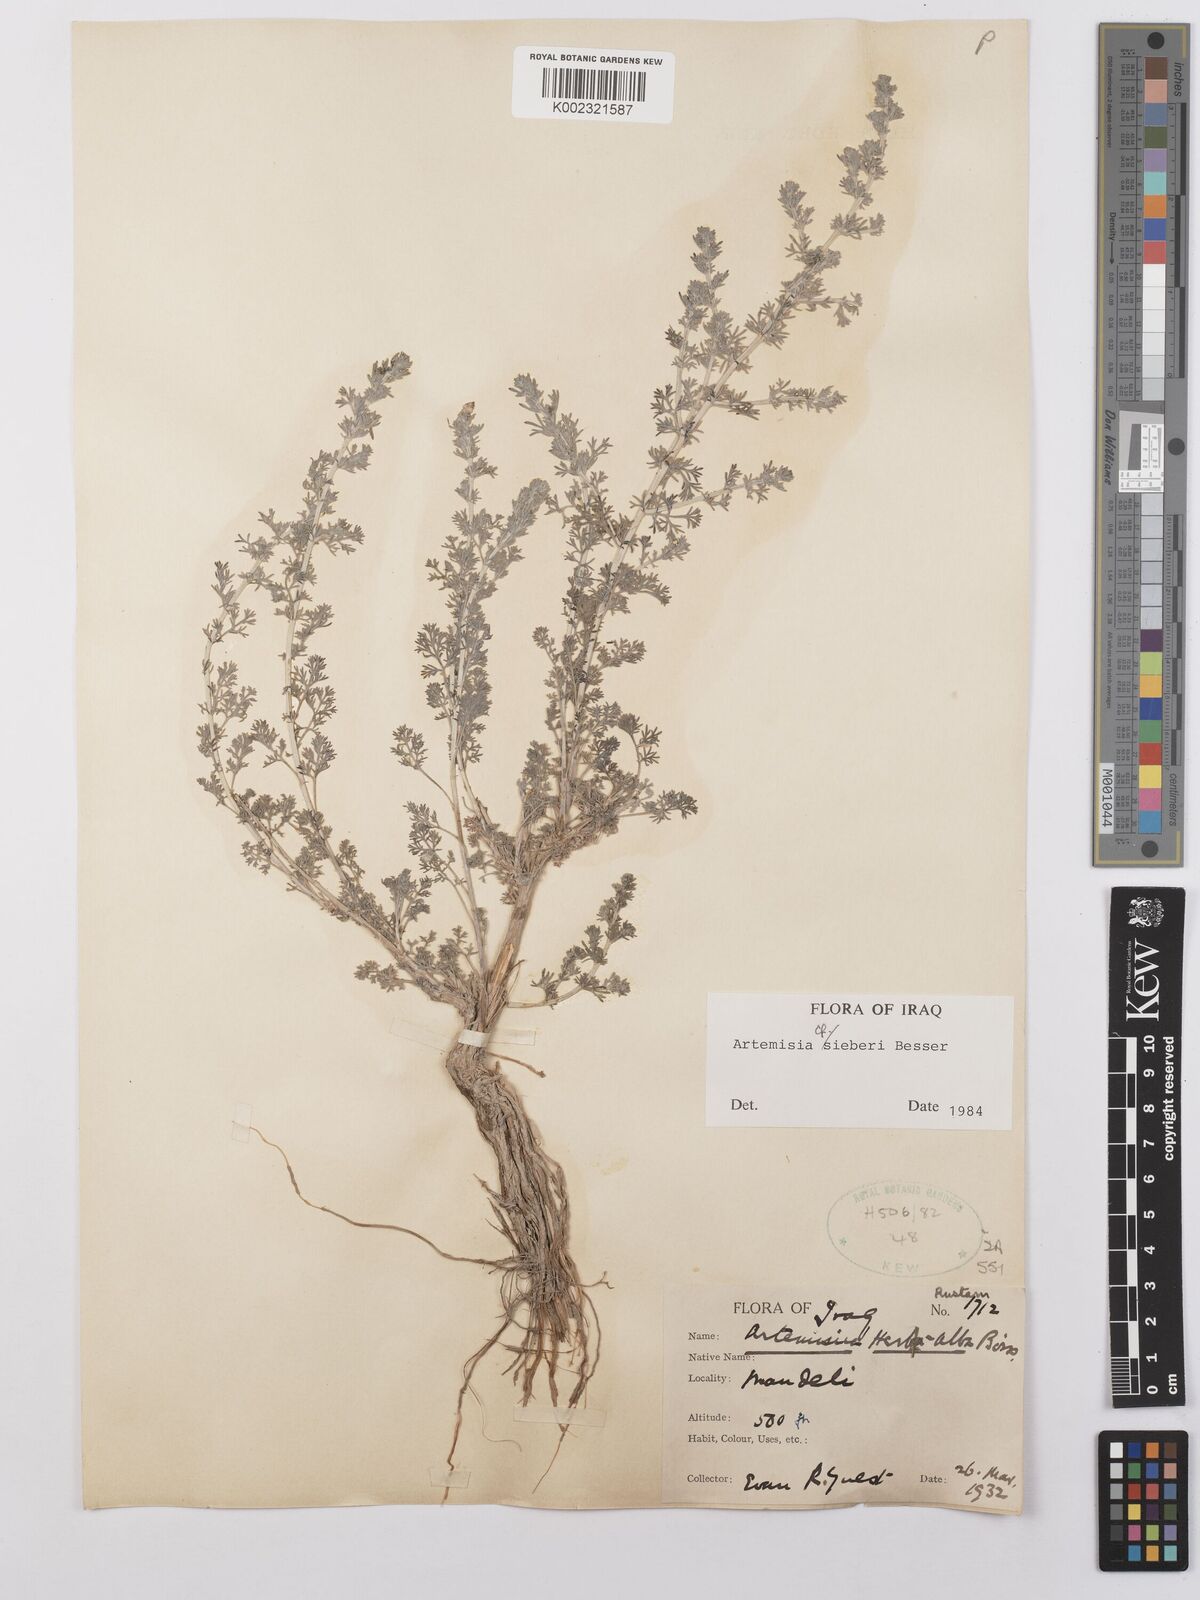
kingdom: Plantae
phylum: Tracheophyta
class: Magnoliopsida
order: Asterales
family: Asteraceae
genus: Artemisia
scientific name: Artemisia sieberi
